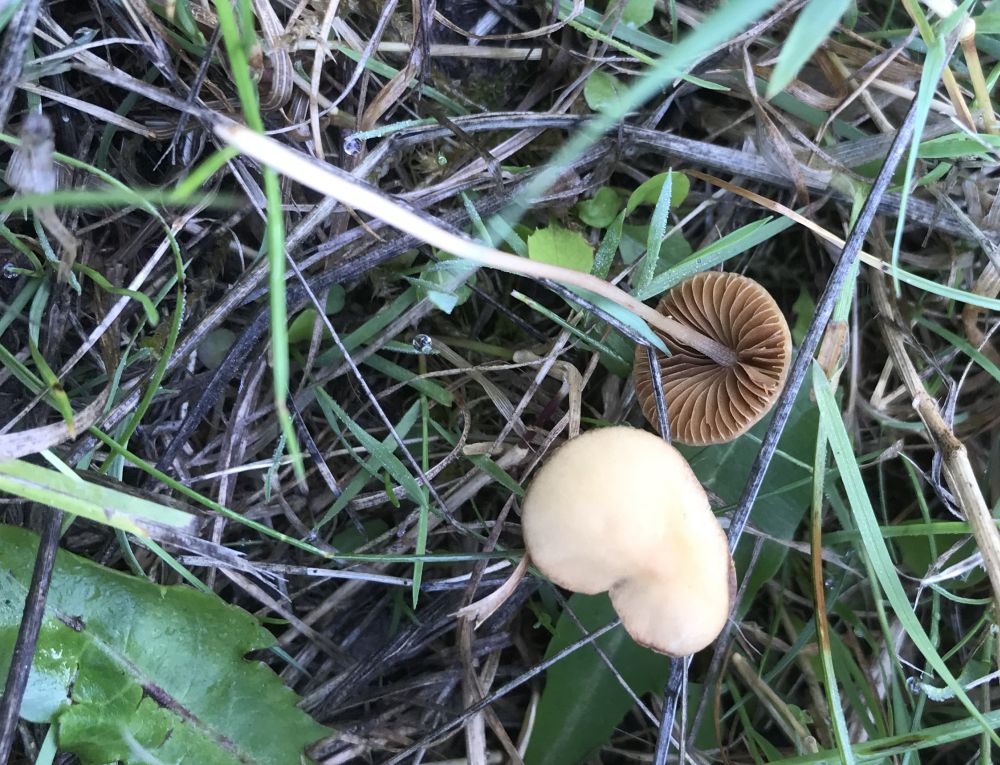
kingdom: Fungi
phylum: Basidiomycota
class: Agaricomycetes
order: Agaricales
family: Bolbitiaceae
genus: Conocybe
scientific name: Conocybe
